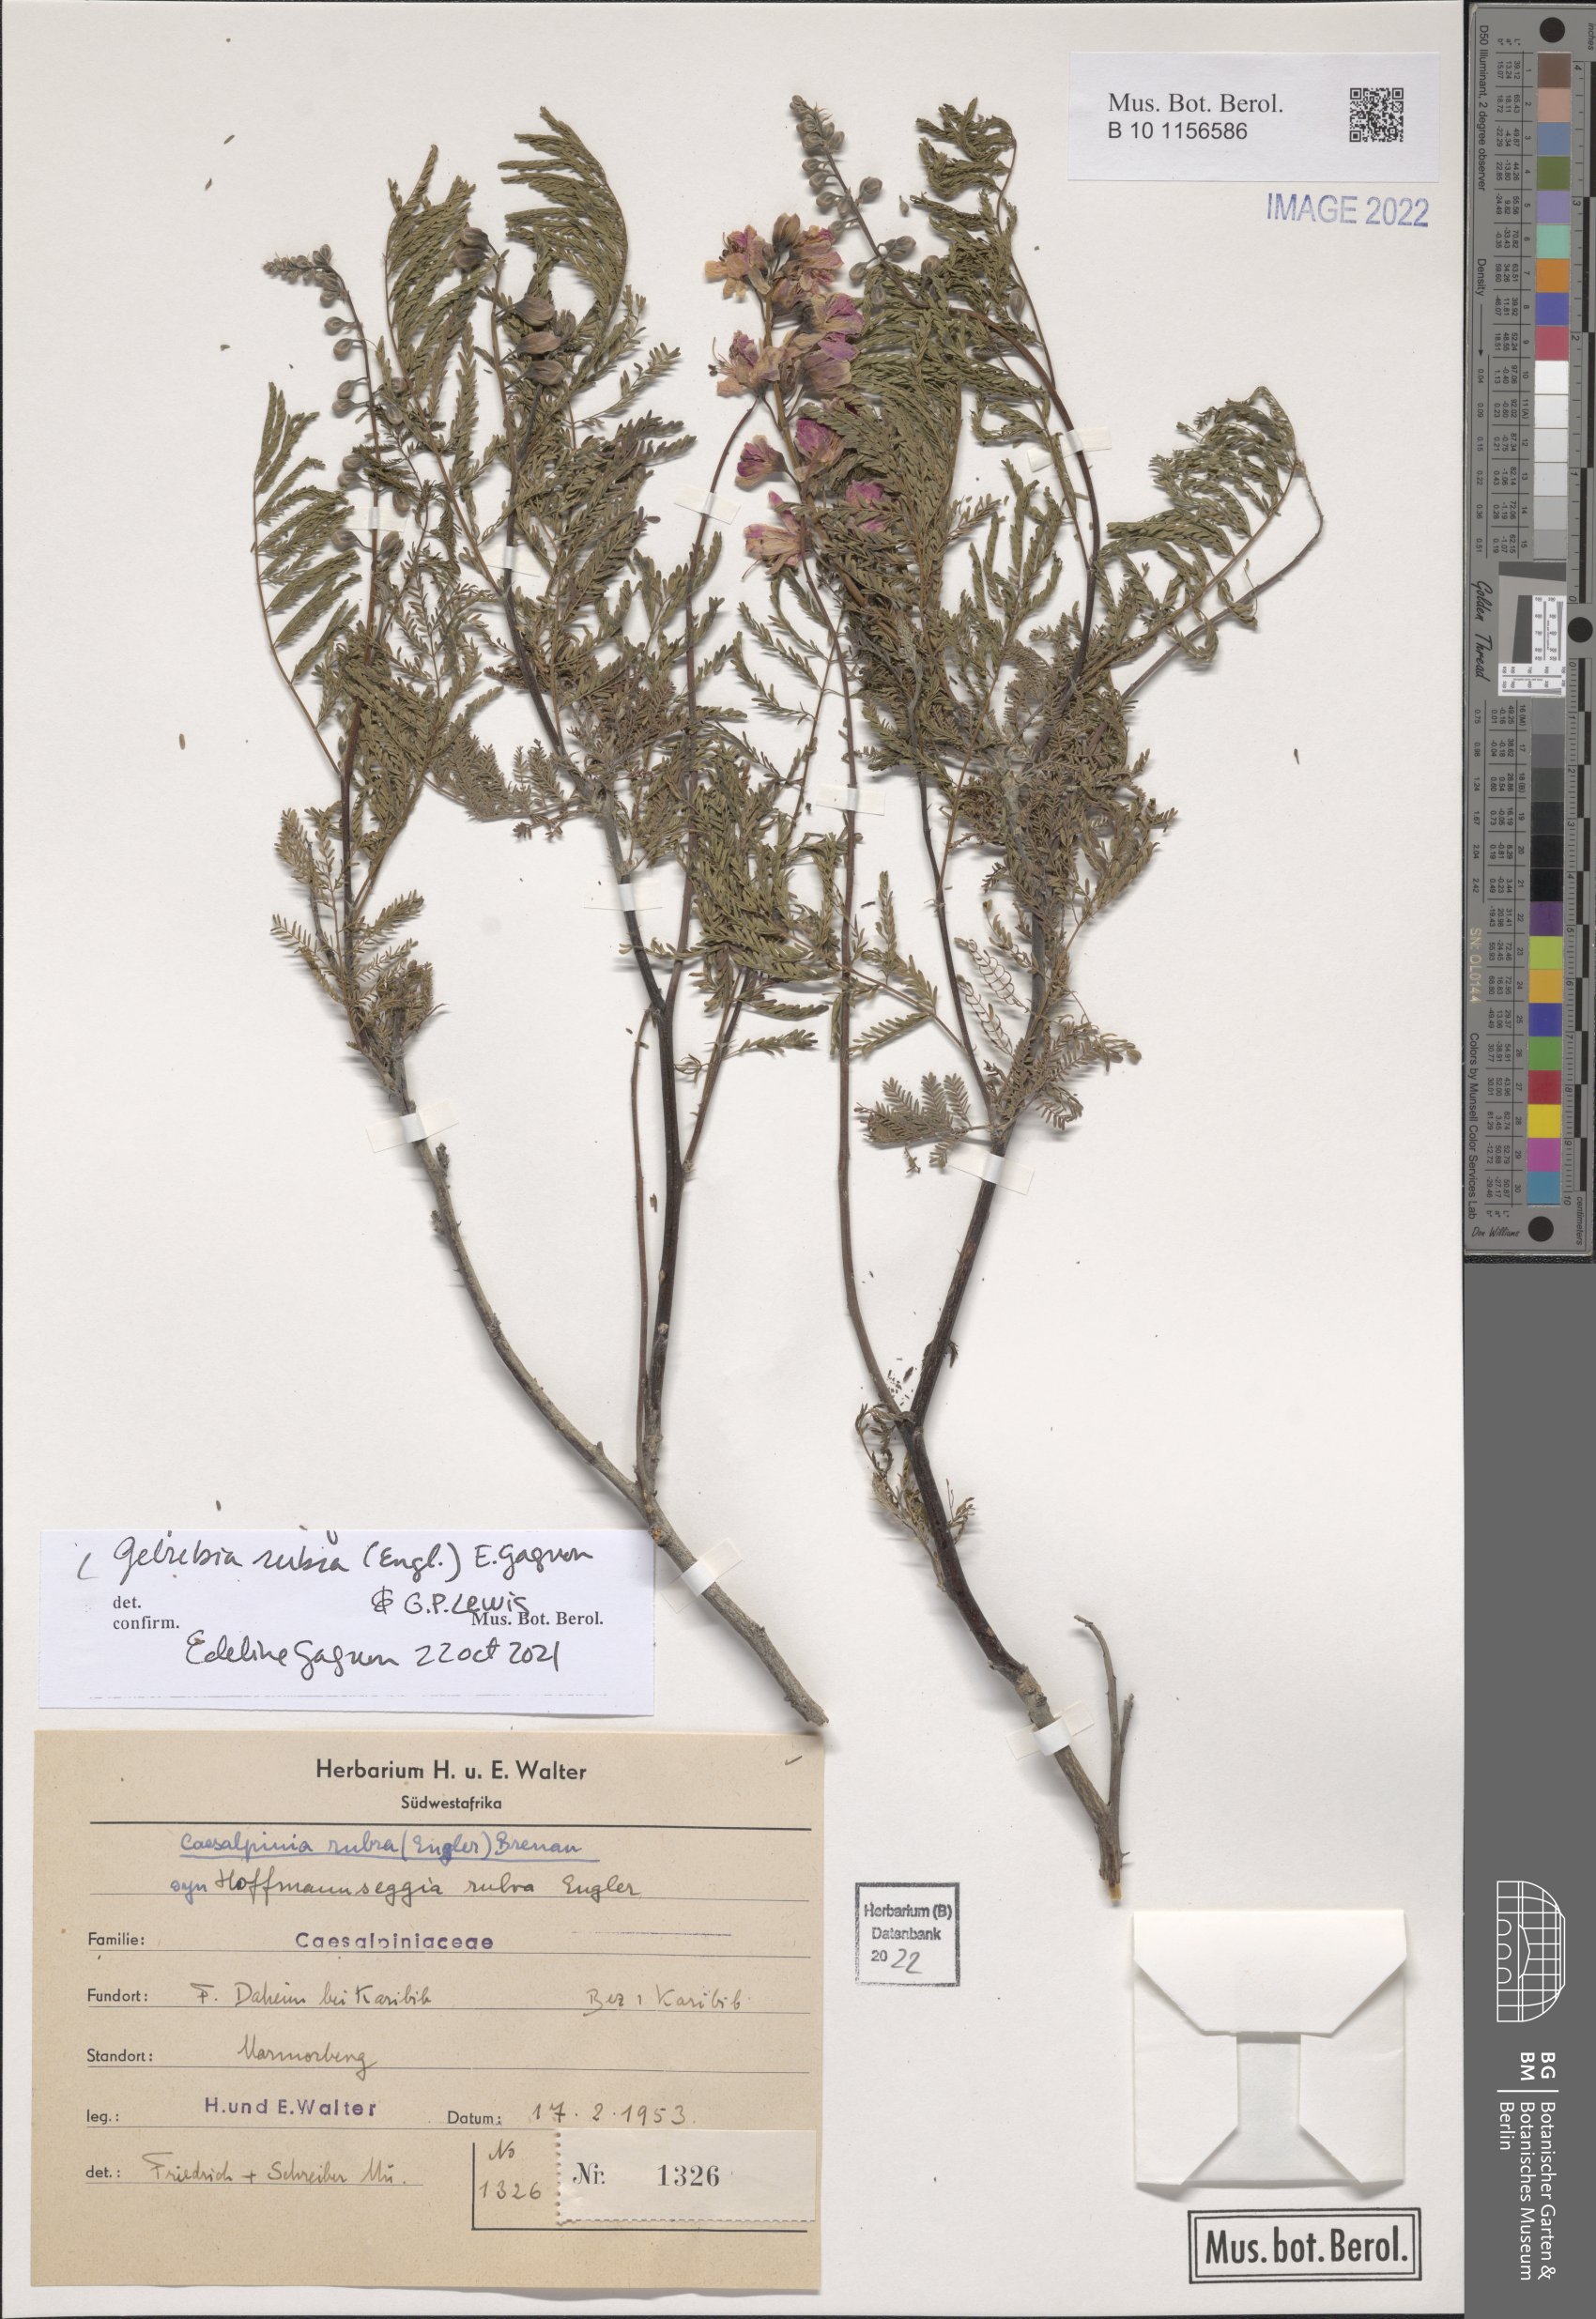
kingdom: Plantae
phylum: Tracheophyta
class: Magnoliopsida
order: Fabales
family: Fabaceae
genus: Gelrebia
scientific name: Gelrebia rubra
